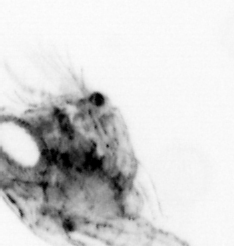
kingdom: Animalia
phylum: Arthropoda
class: Malacostraca
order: Decapoda
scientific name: Decapoda
